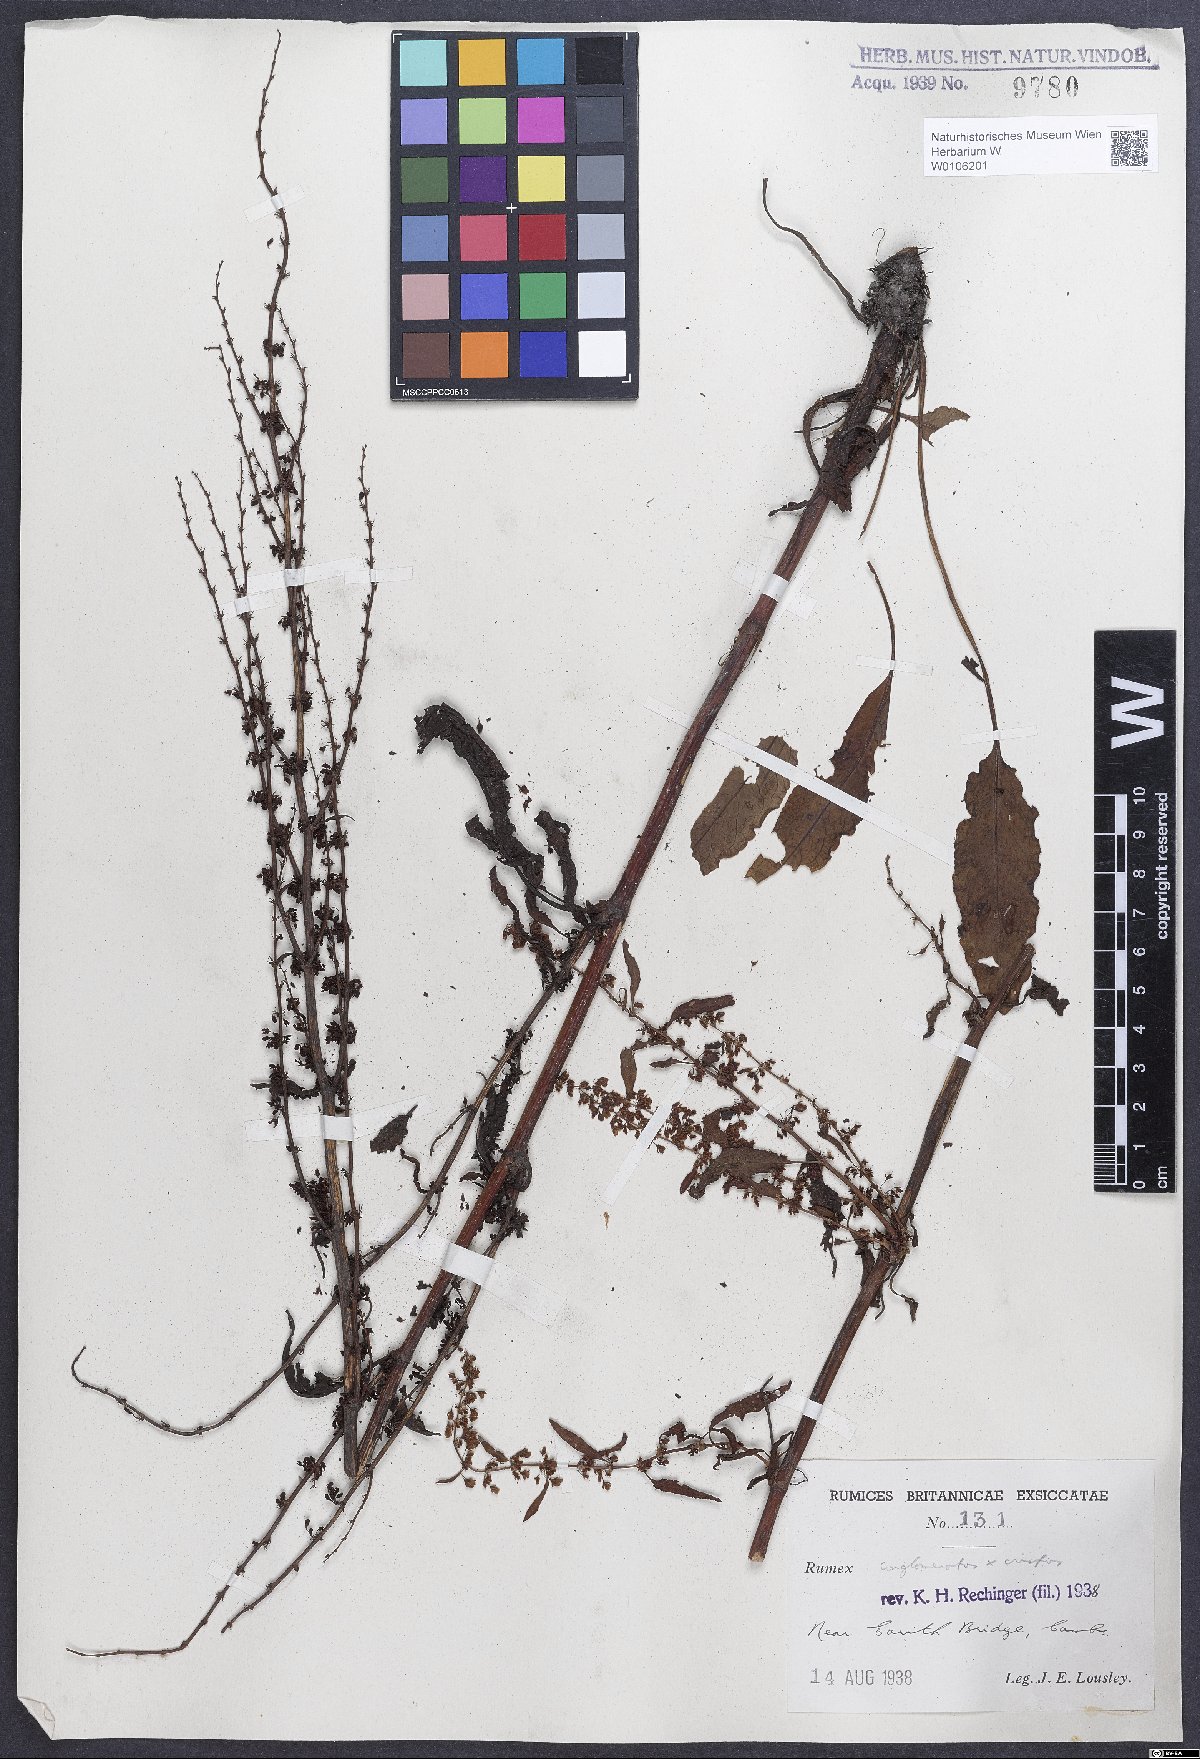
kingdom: Plantae
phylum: Tracheophyta
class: Magnoliopsida
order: Caryophyllales
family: Polygonaceae
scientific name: Polygonaceae
